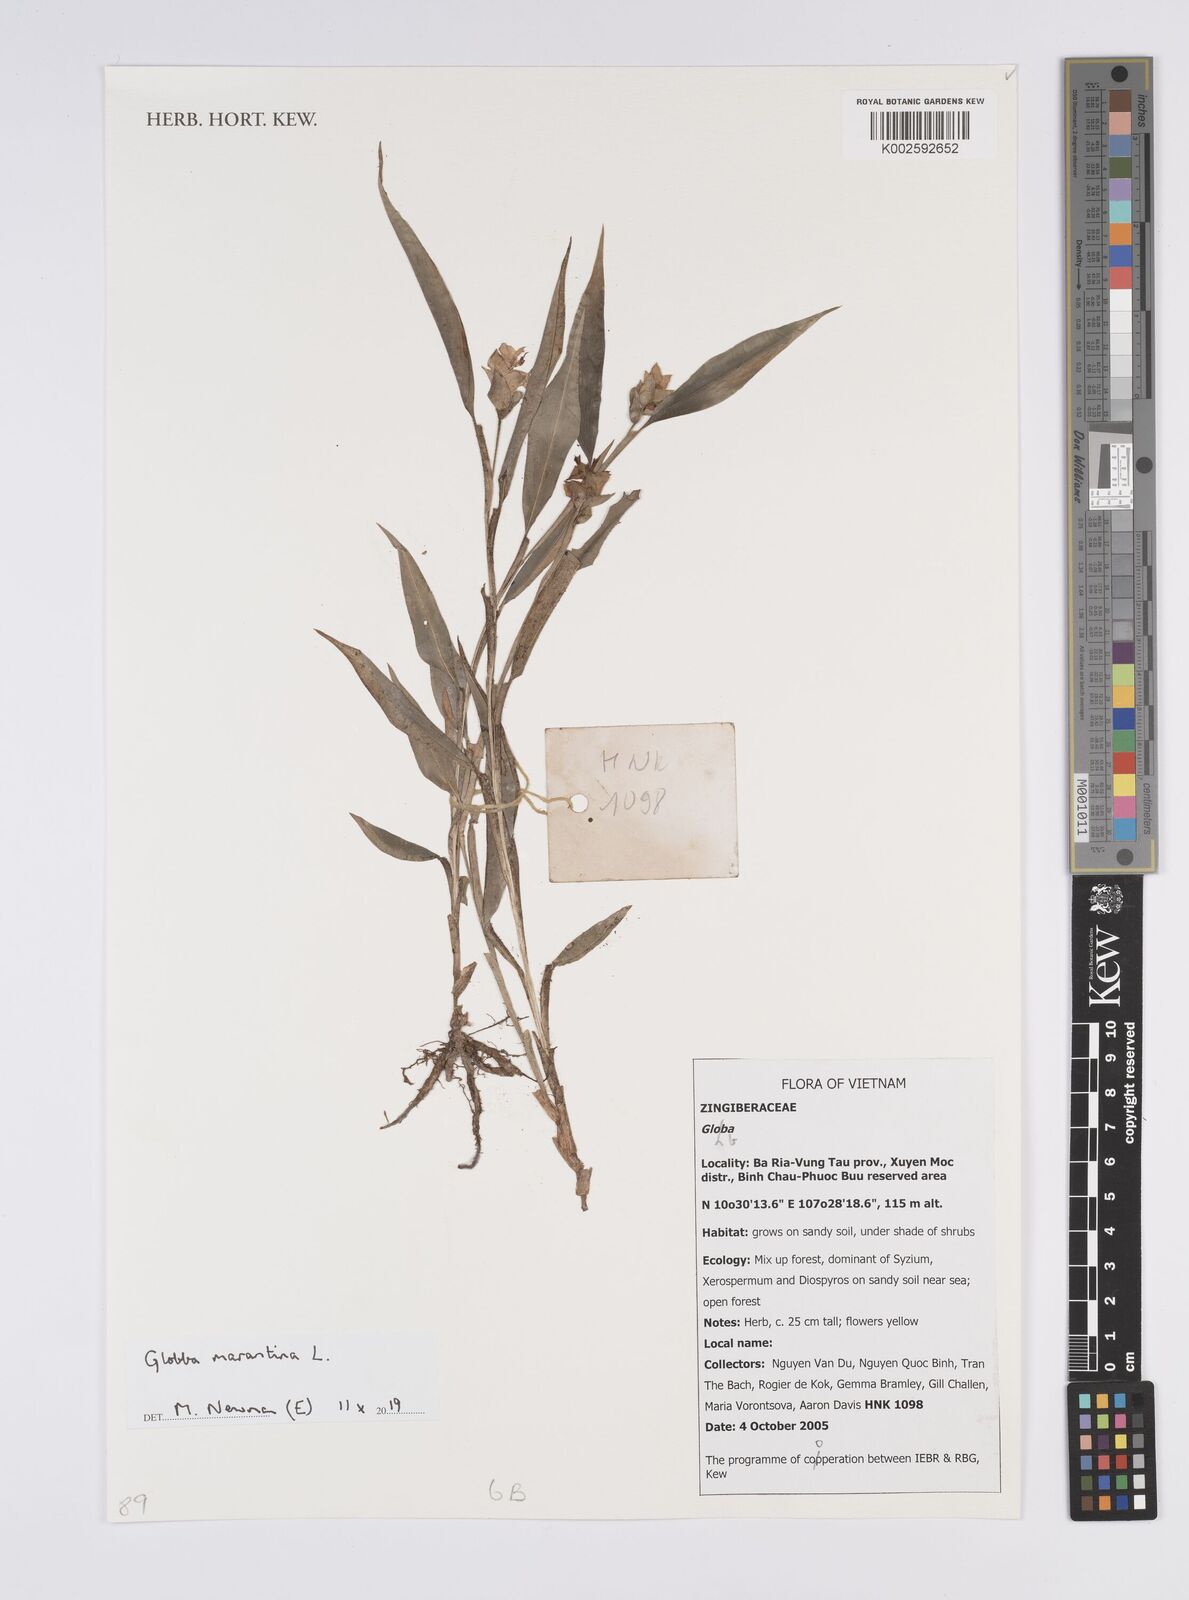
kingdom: Plantae
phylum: Tracheophyta
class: Liliopsida
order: Zingiberales
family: Zingiberaceae
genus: Globba
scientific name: Globba marantina
